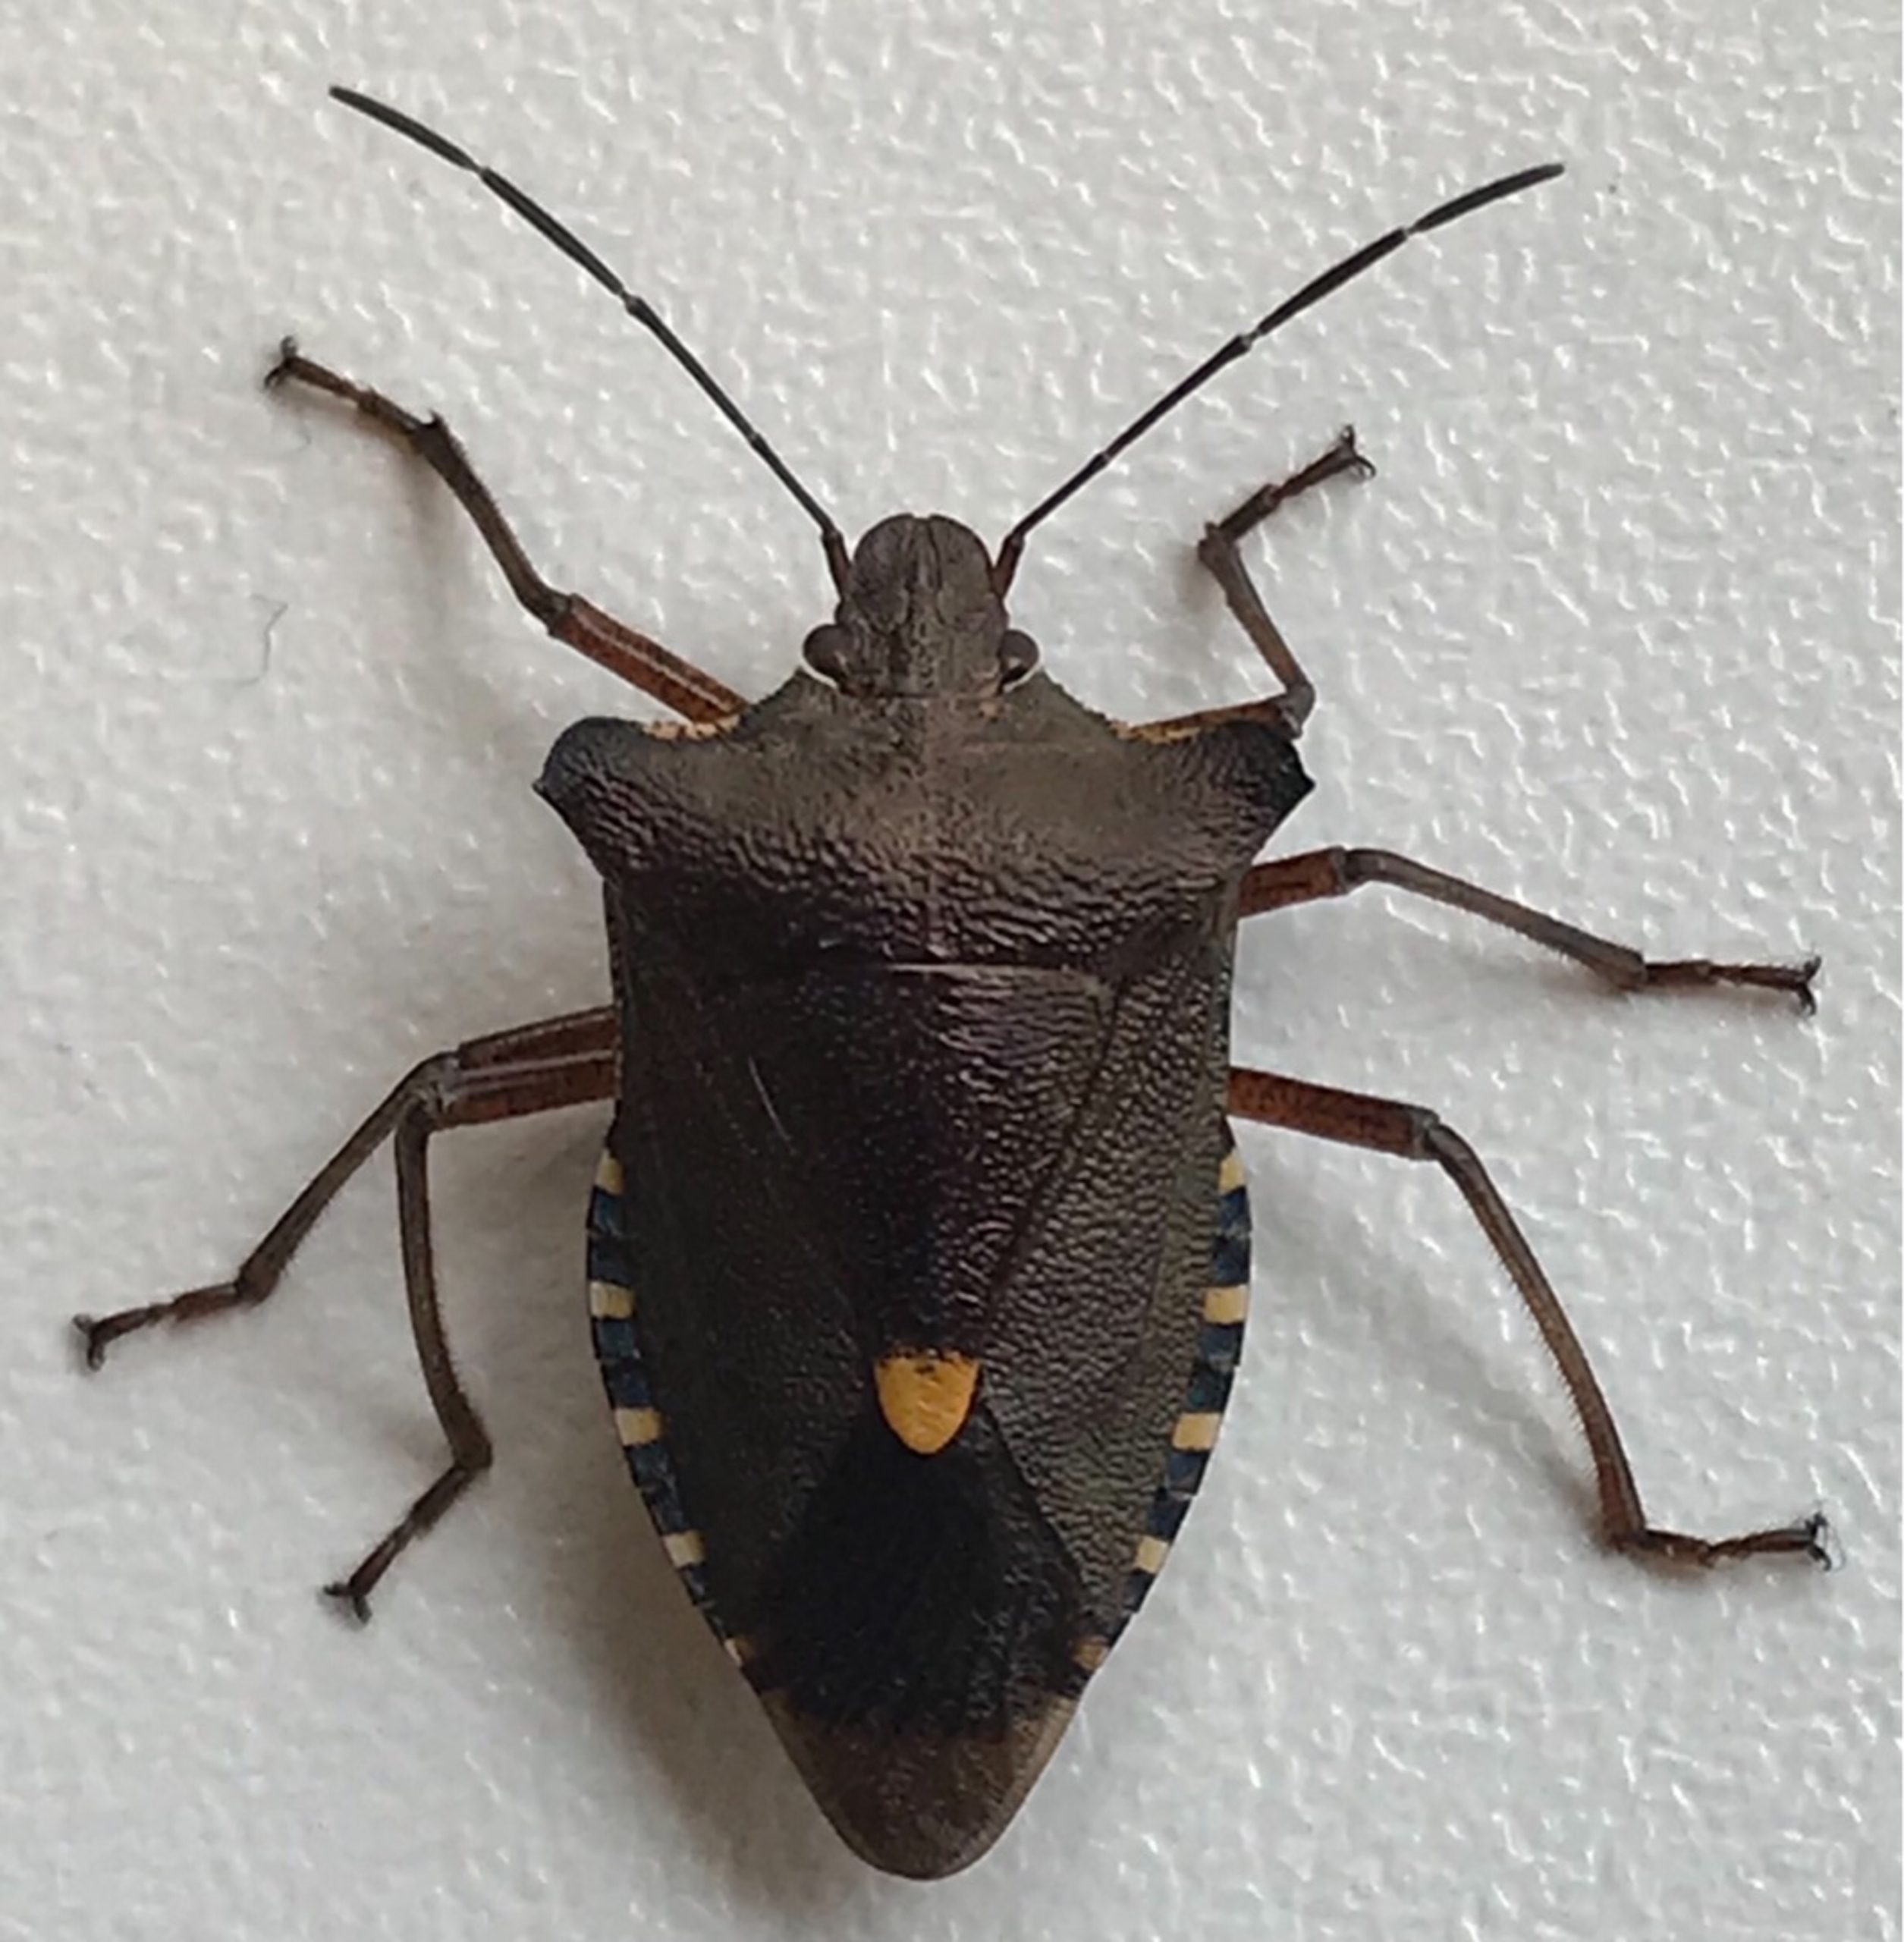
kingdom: Animalia
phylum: Arthropoda
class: Insecta
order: Hemiptera
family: Pentatomidae
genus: Pentatoma
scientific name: Pentatoma rufipes
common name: Rødbenet bredtæge
